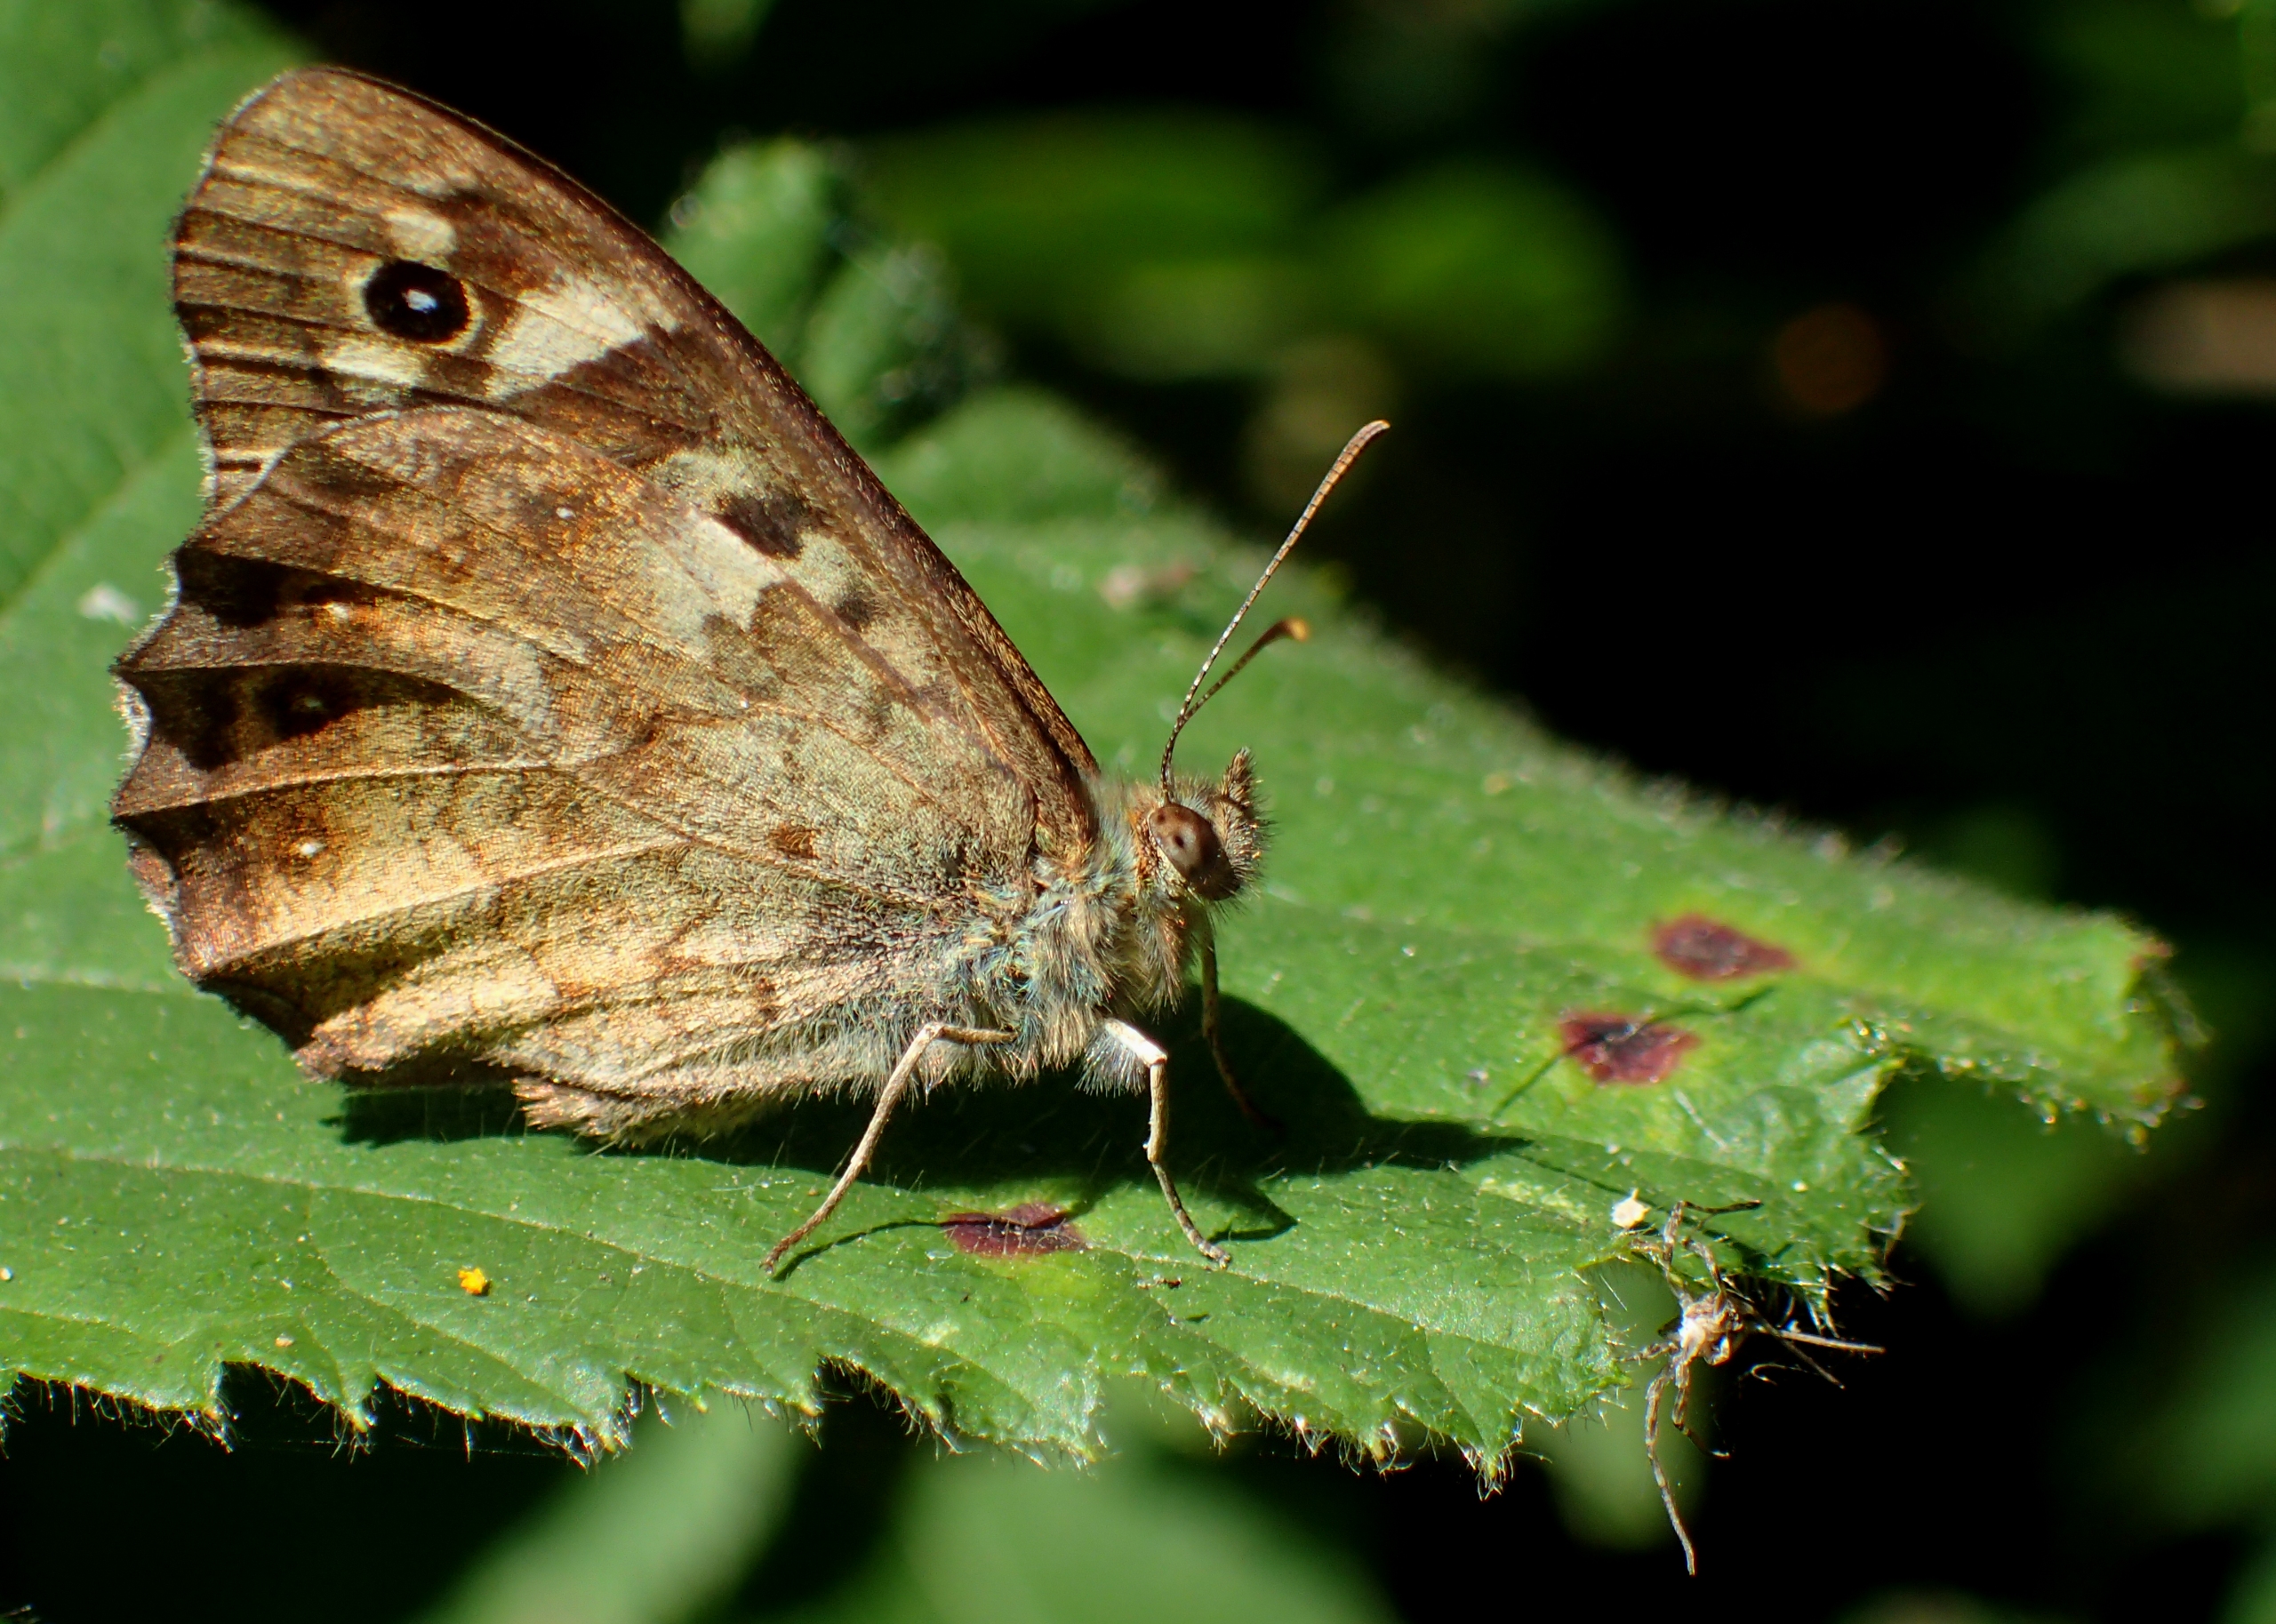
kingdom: Animalia
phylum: Arthropoda
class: Insecta
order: Lepidoptera
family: Nymphalidae
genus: Pararge
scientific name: Pararge aegeria
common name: Skovrandøje
